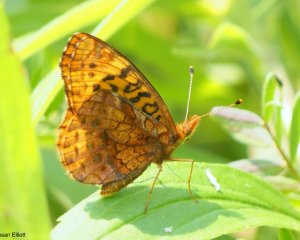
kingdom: Animalia
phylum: Arthropoda
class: Insecta
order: Lepidoptera
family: Nymphalidae
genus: Clossiana
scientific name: Clossiana toddi
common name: Meadow Fritillary
